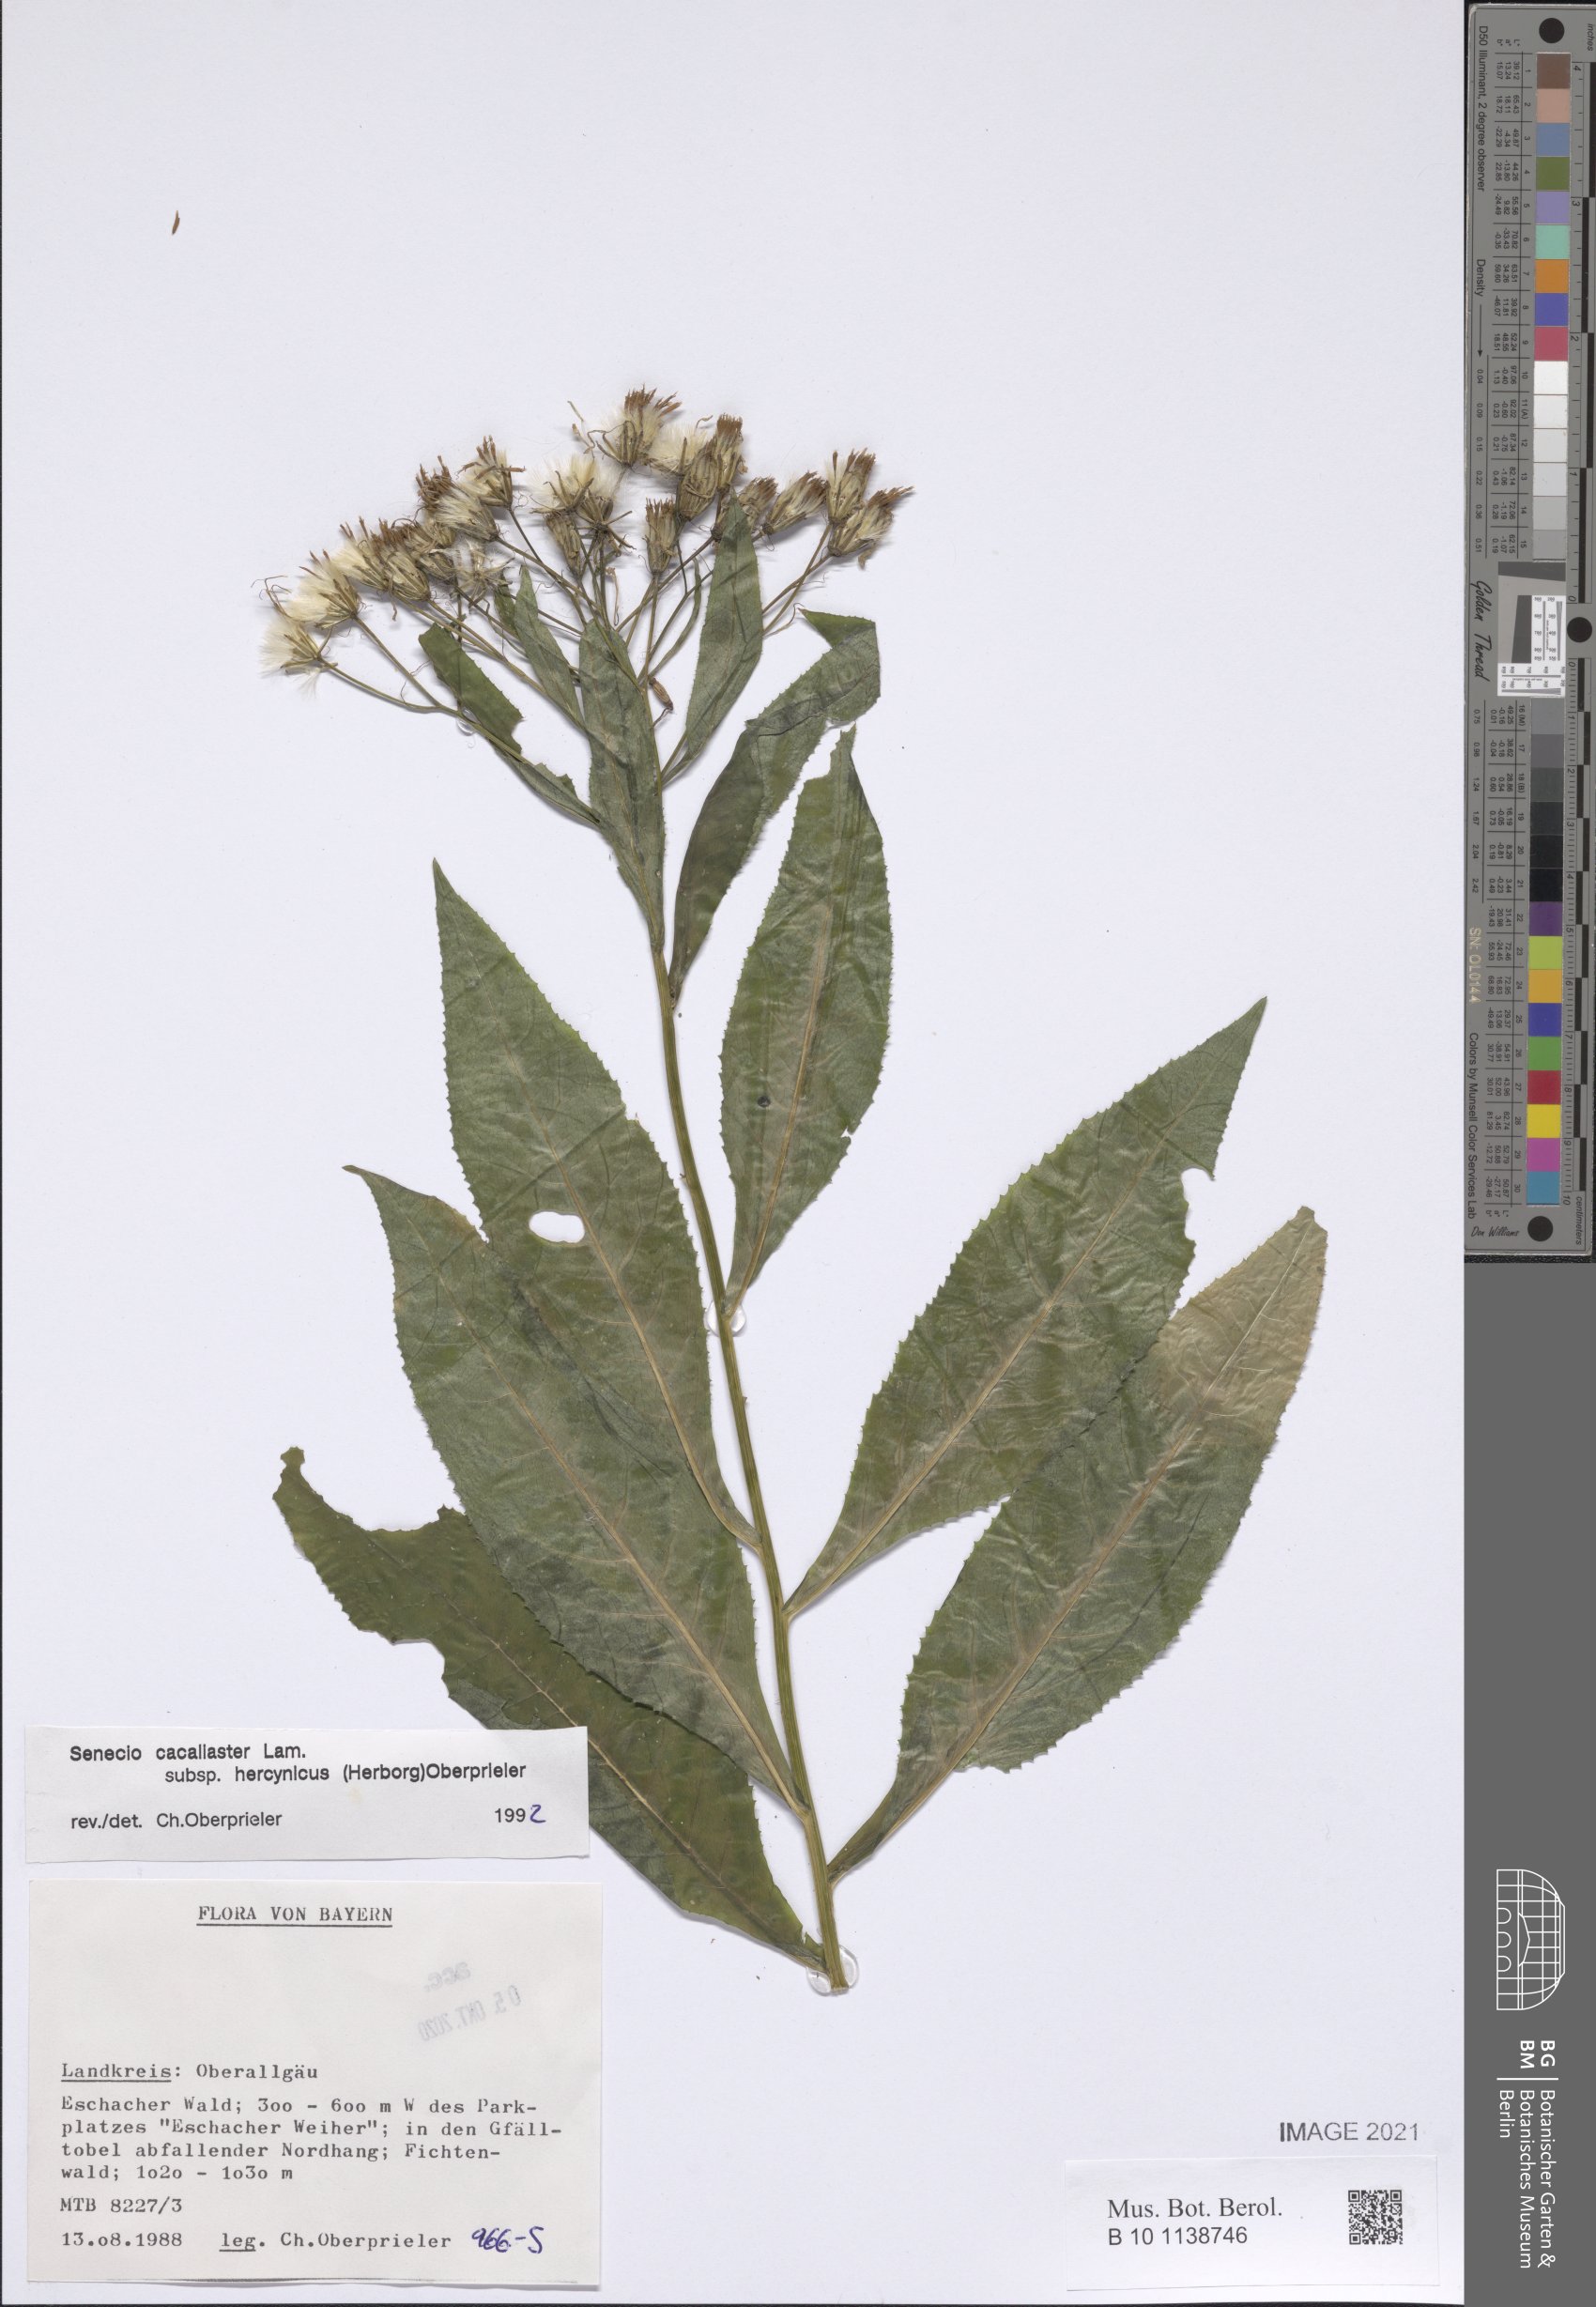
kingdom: Plantae
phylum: Tracheophyta
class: Magnoliopsida
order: Asterales
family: Asteraceae
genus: Senecio
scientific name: Senecio hercynicus
